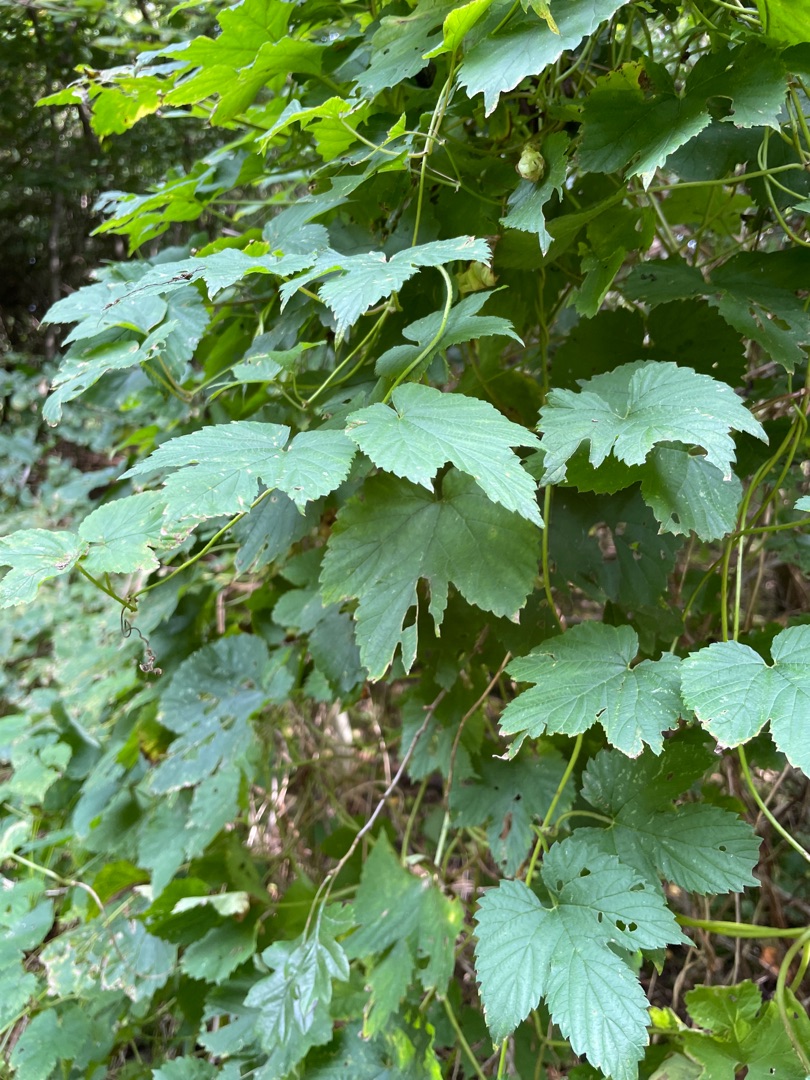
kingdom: Plantae
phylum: Tracheophyta
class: Magnoliopsida
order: Rosales
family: Cannabaceae
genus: Humulus
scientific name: Humulus lupulus
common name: Humle
